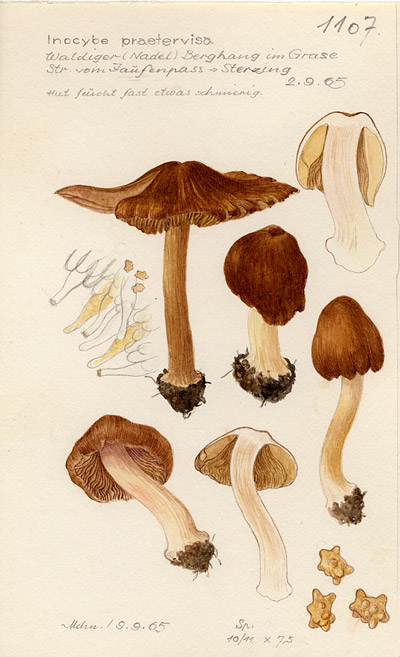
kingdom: Fungi
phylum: Basidiomycota
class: Agaricomycetes
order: Agaricales
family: Inocybaceae
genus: Inocybe
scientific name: Inocybe praetervisa
